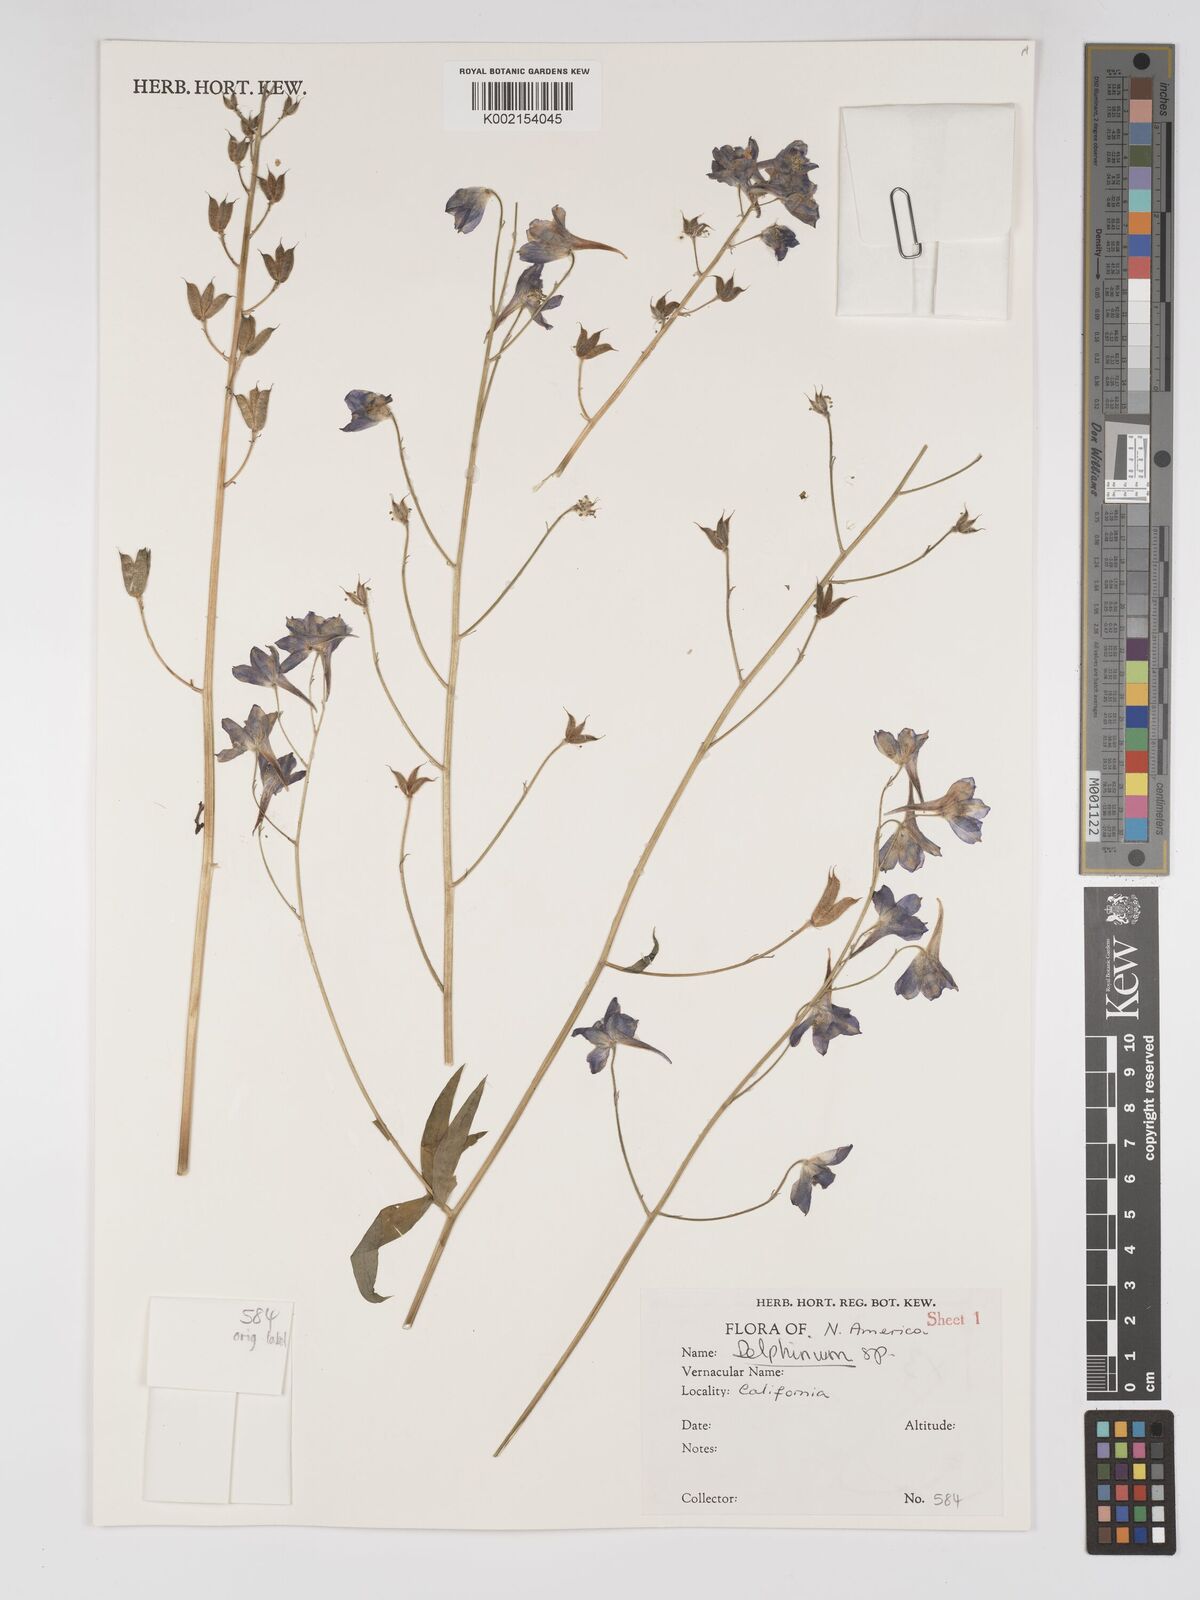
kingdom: Plantae
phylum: Tracheophyta
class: Magnoliopsida
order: Ranunculales
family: Ranunculaceae
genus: Delphinium
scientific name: Delphinium
